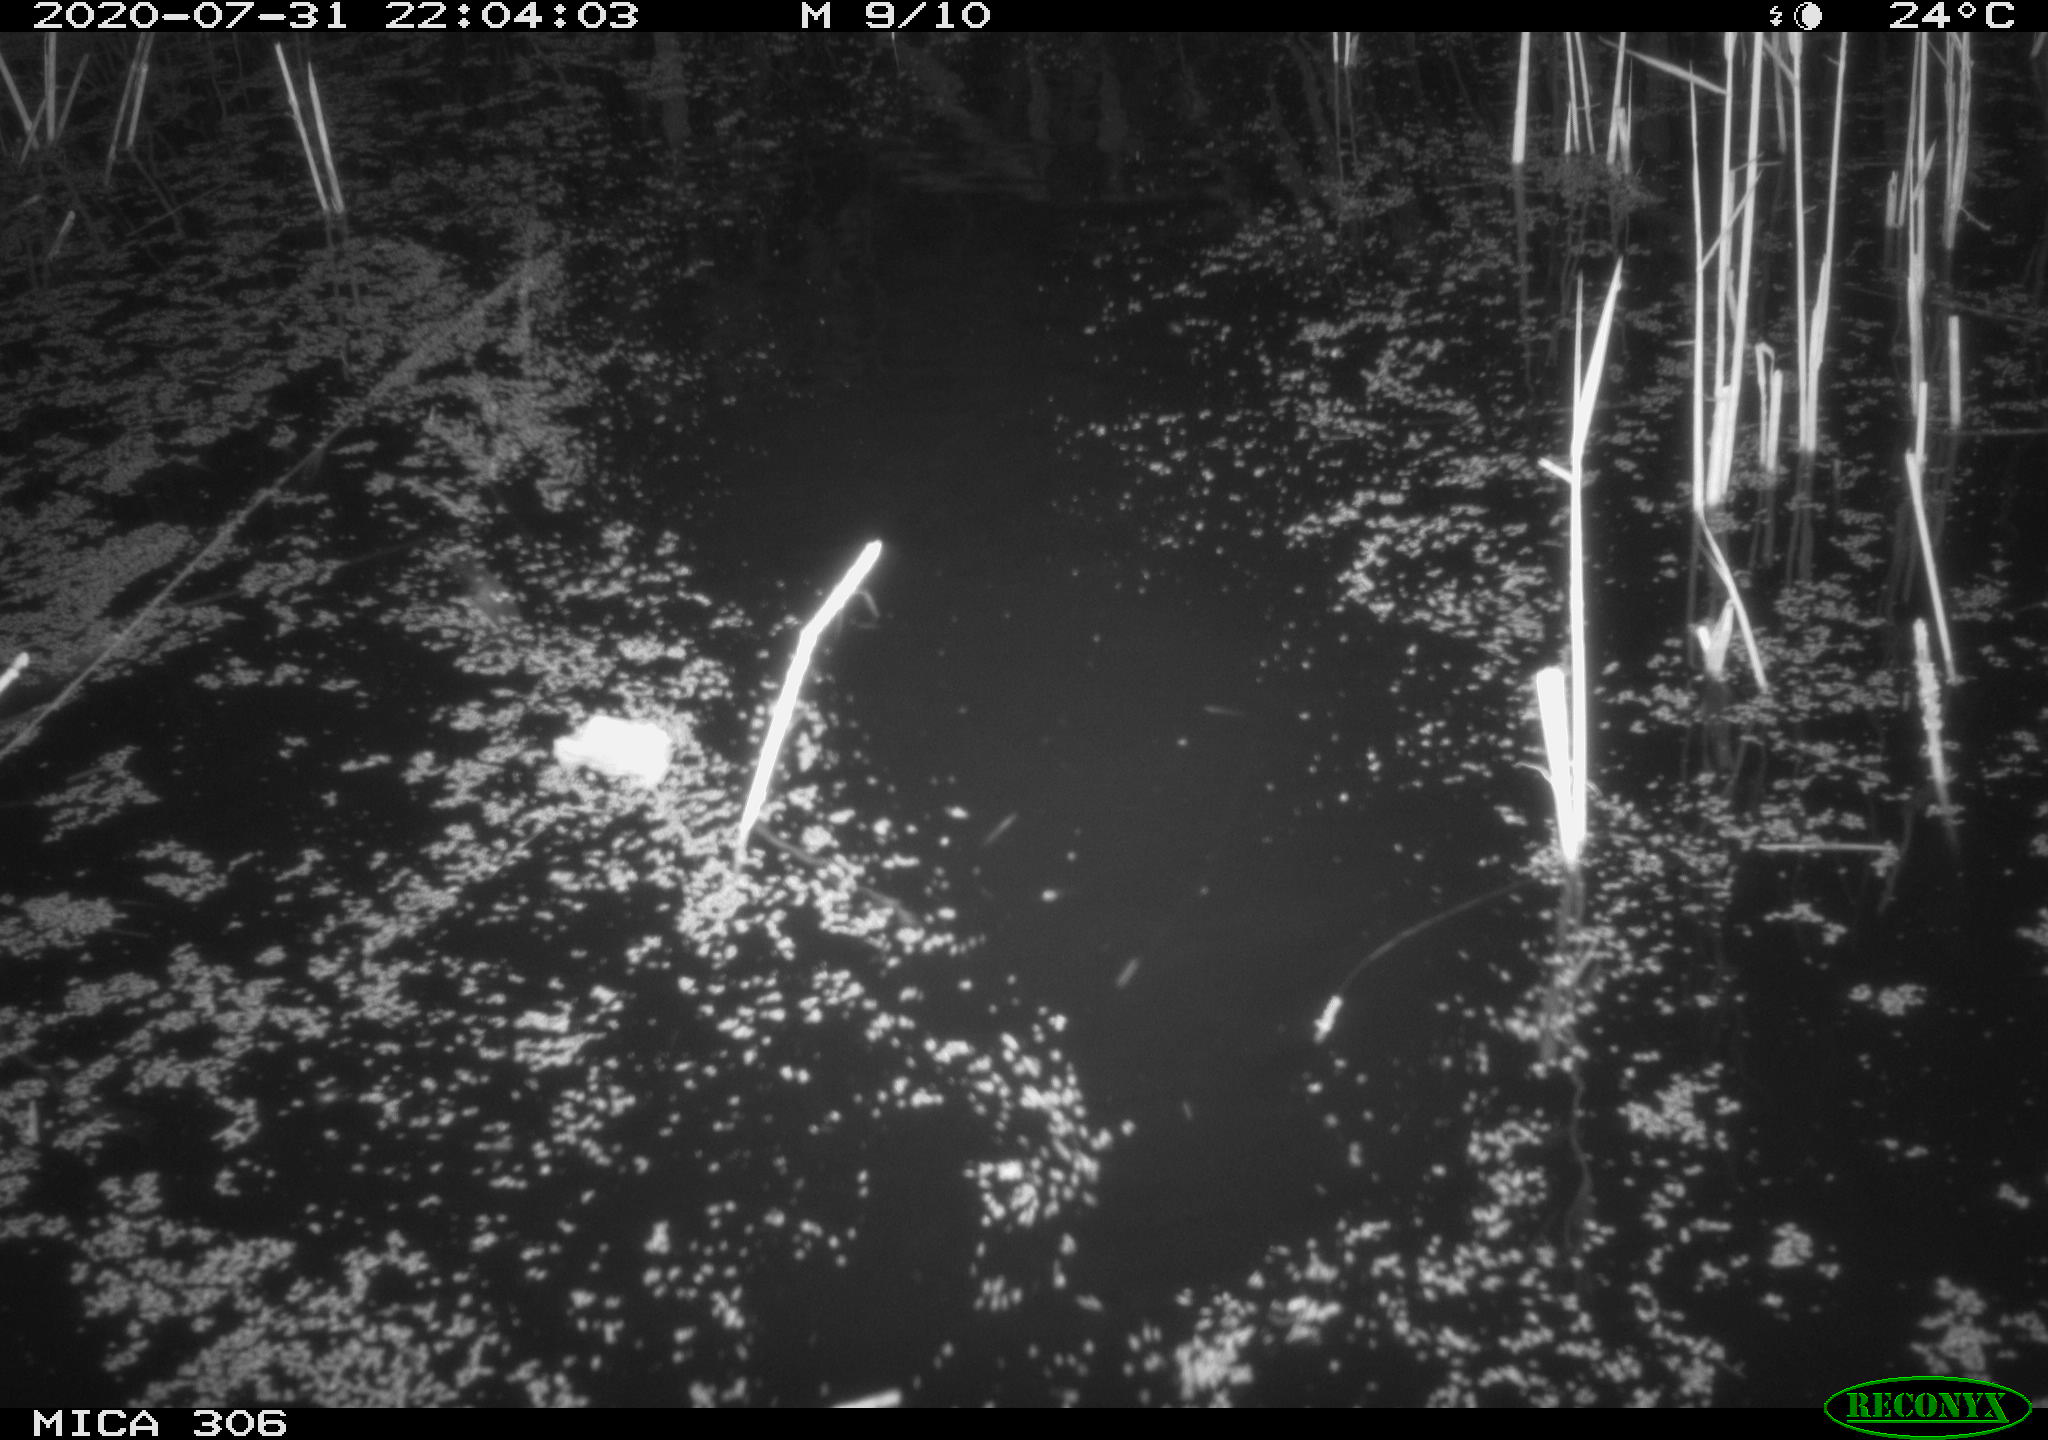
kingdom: Animalia
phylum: Chordata
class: Aves
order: Anseriformes
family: Anatidae
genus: Anas
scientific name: Anas platyrhynchos
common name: Mallard
